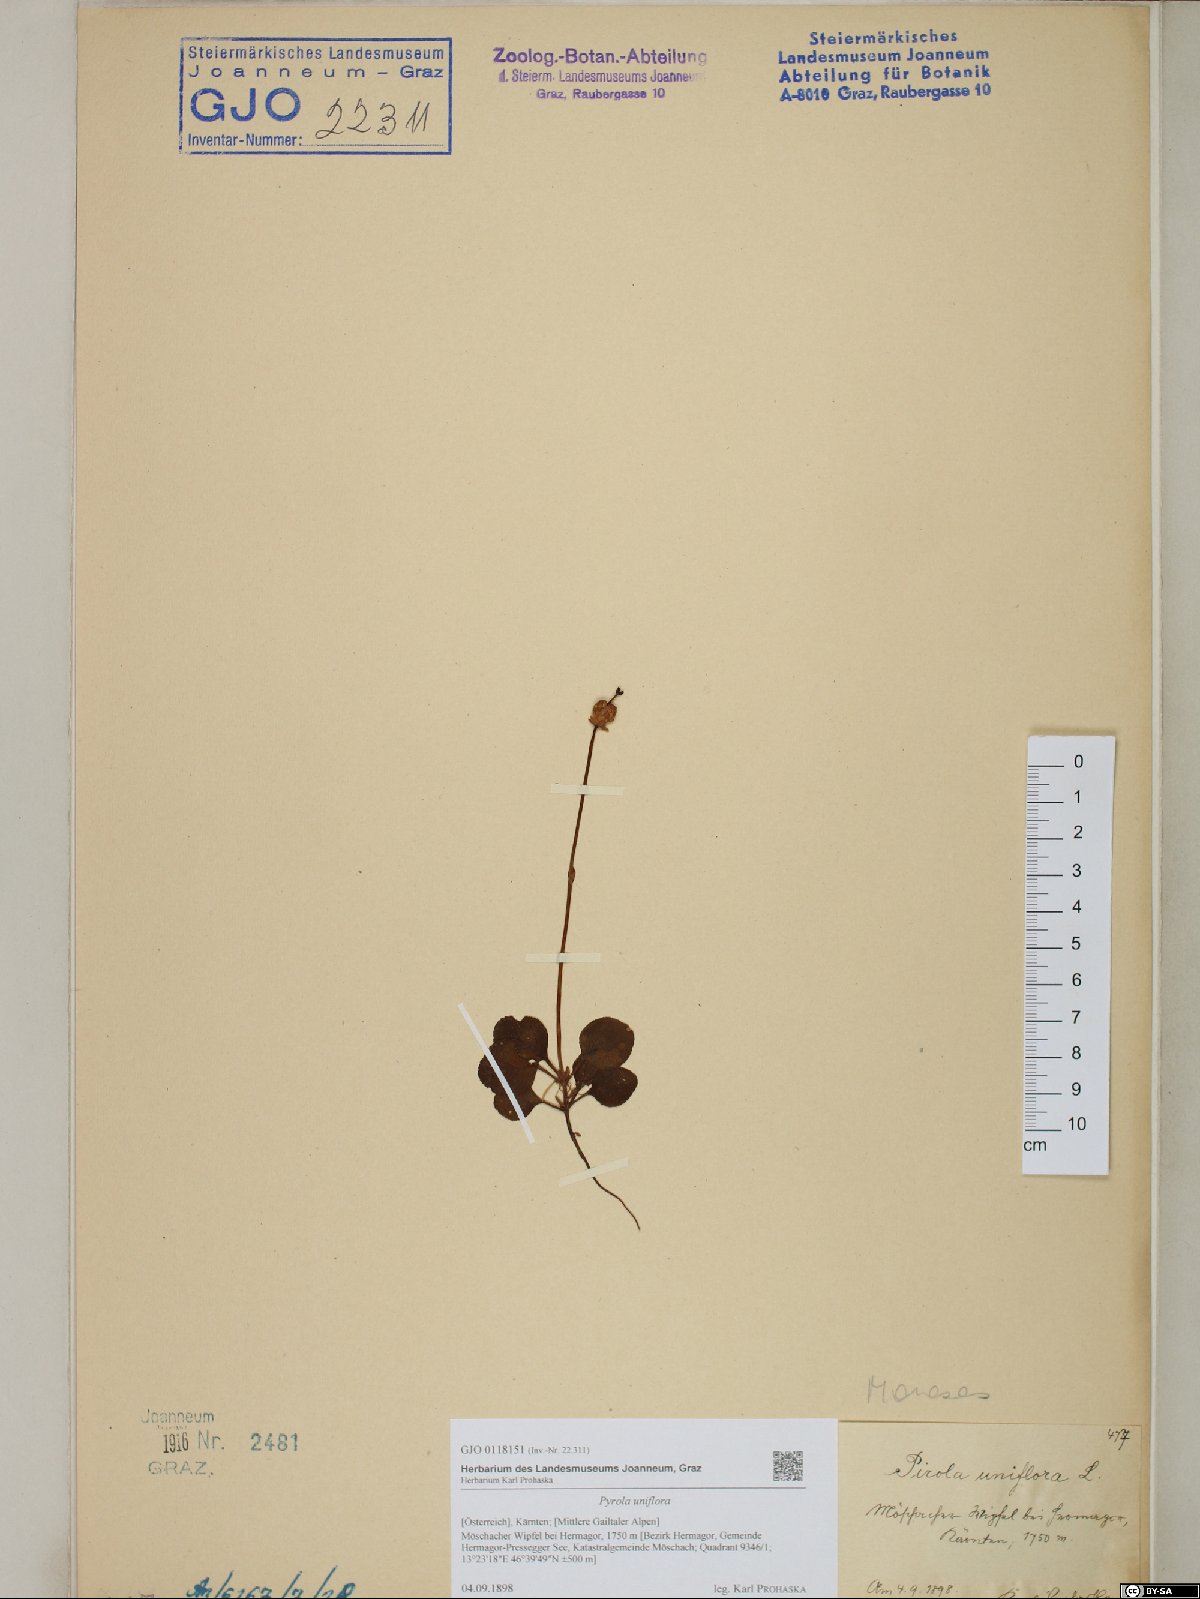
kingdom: Plantae
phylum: Tracheophyta
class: Magnoliopsida
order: Ericales
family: Ericaceae
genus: Moneses
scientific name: Moneses uniflora
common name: One-flowered wintergreen
